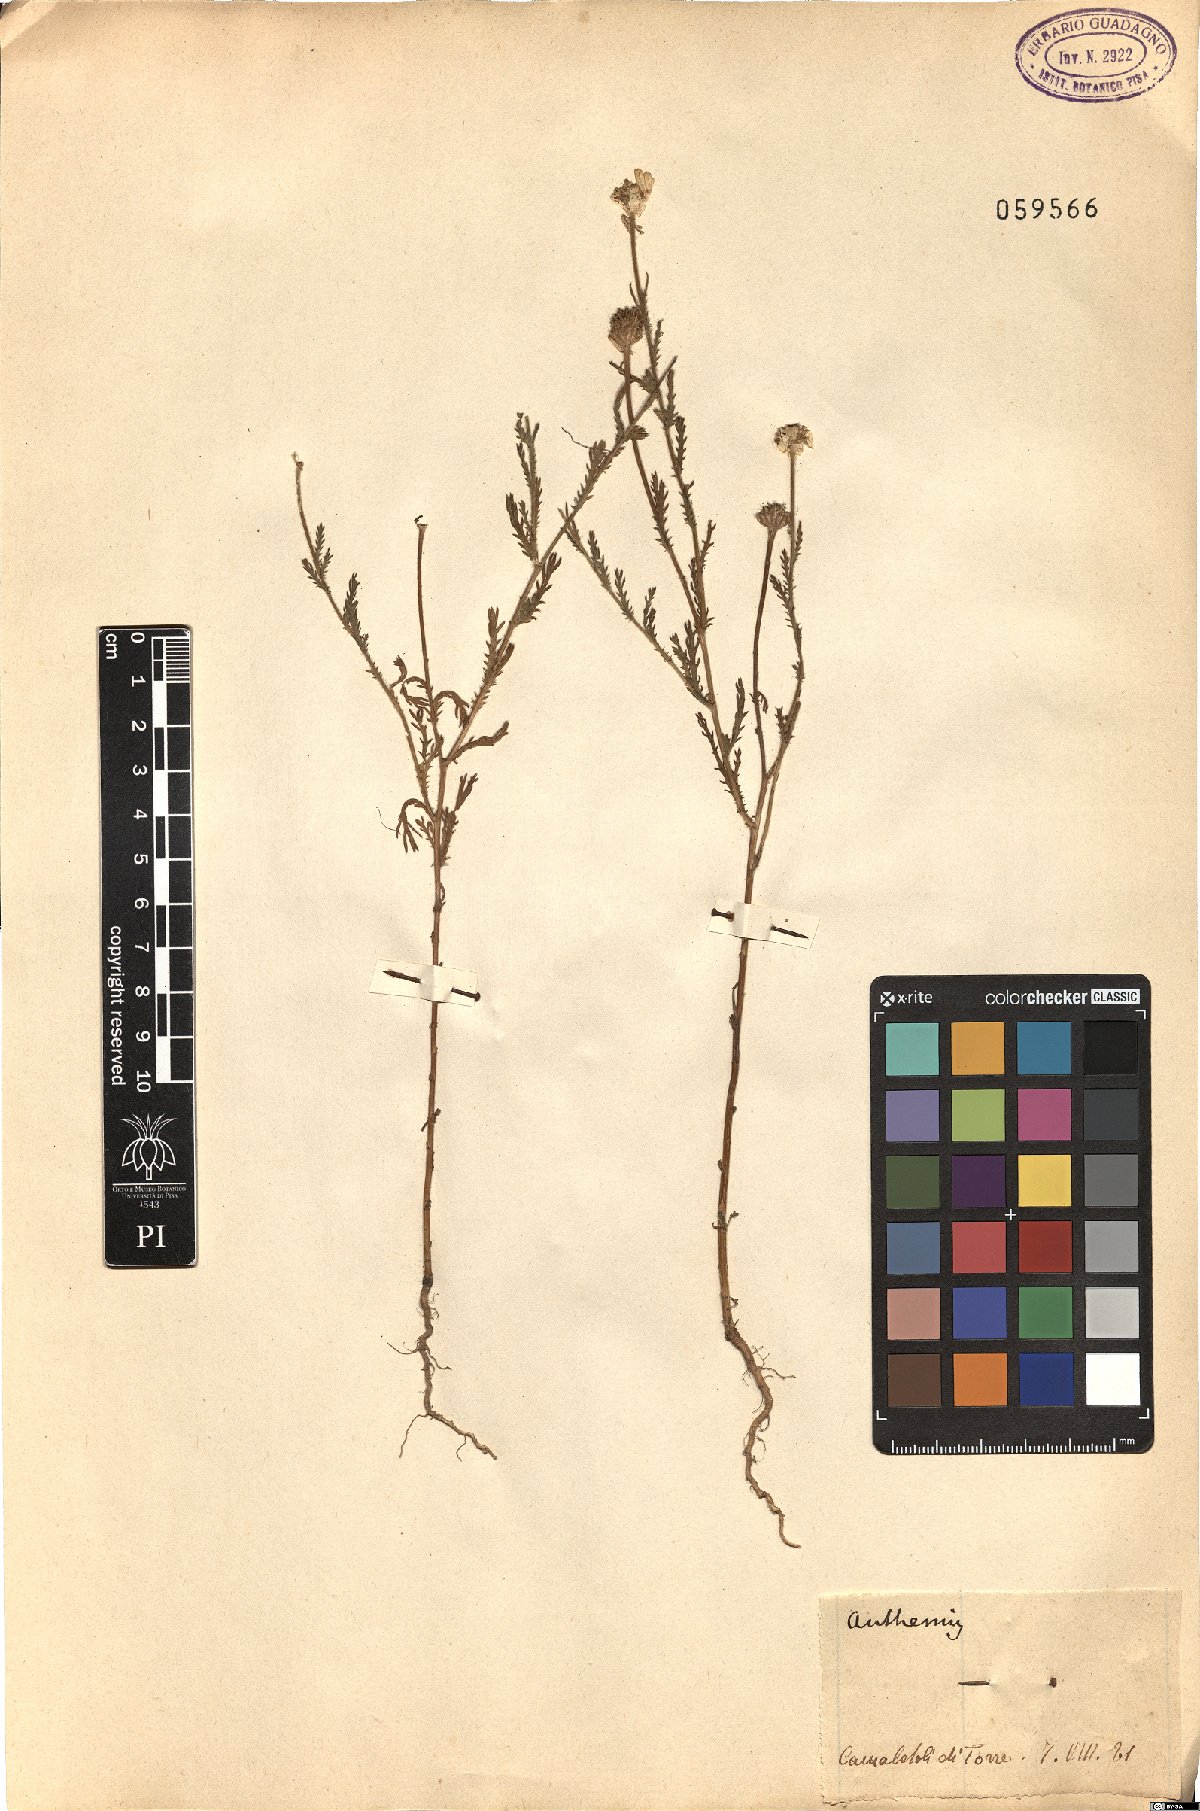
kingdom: Plantae
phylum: Tracheophyta
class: Magnoliopsida
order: Asterales
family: Asteraceae
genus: Anthemis
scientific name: Anthemis
